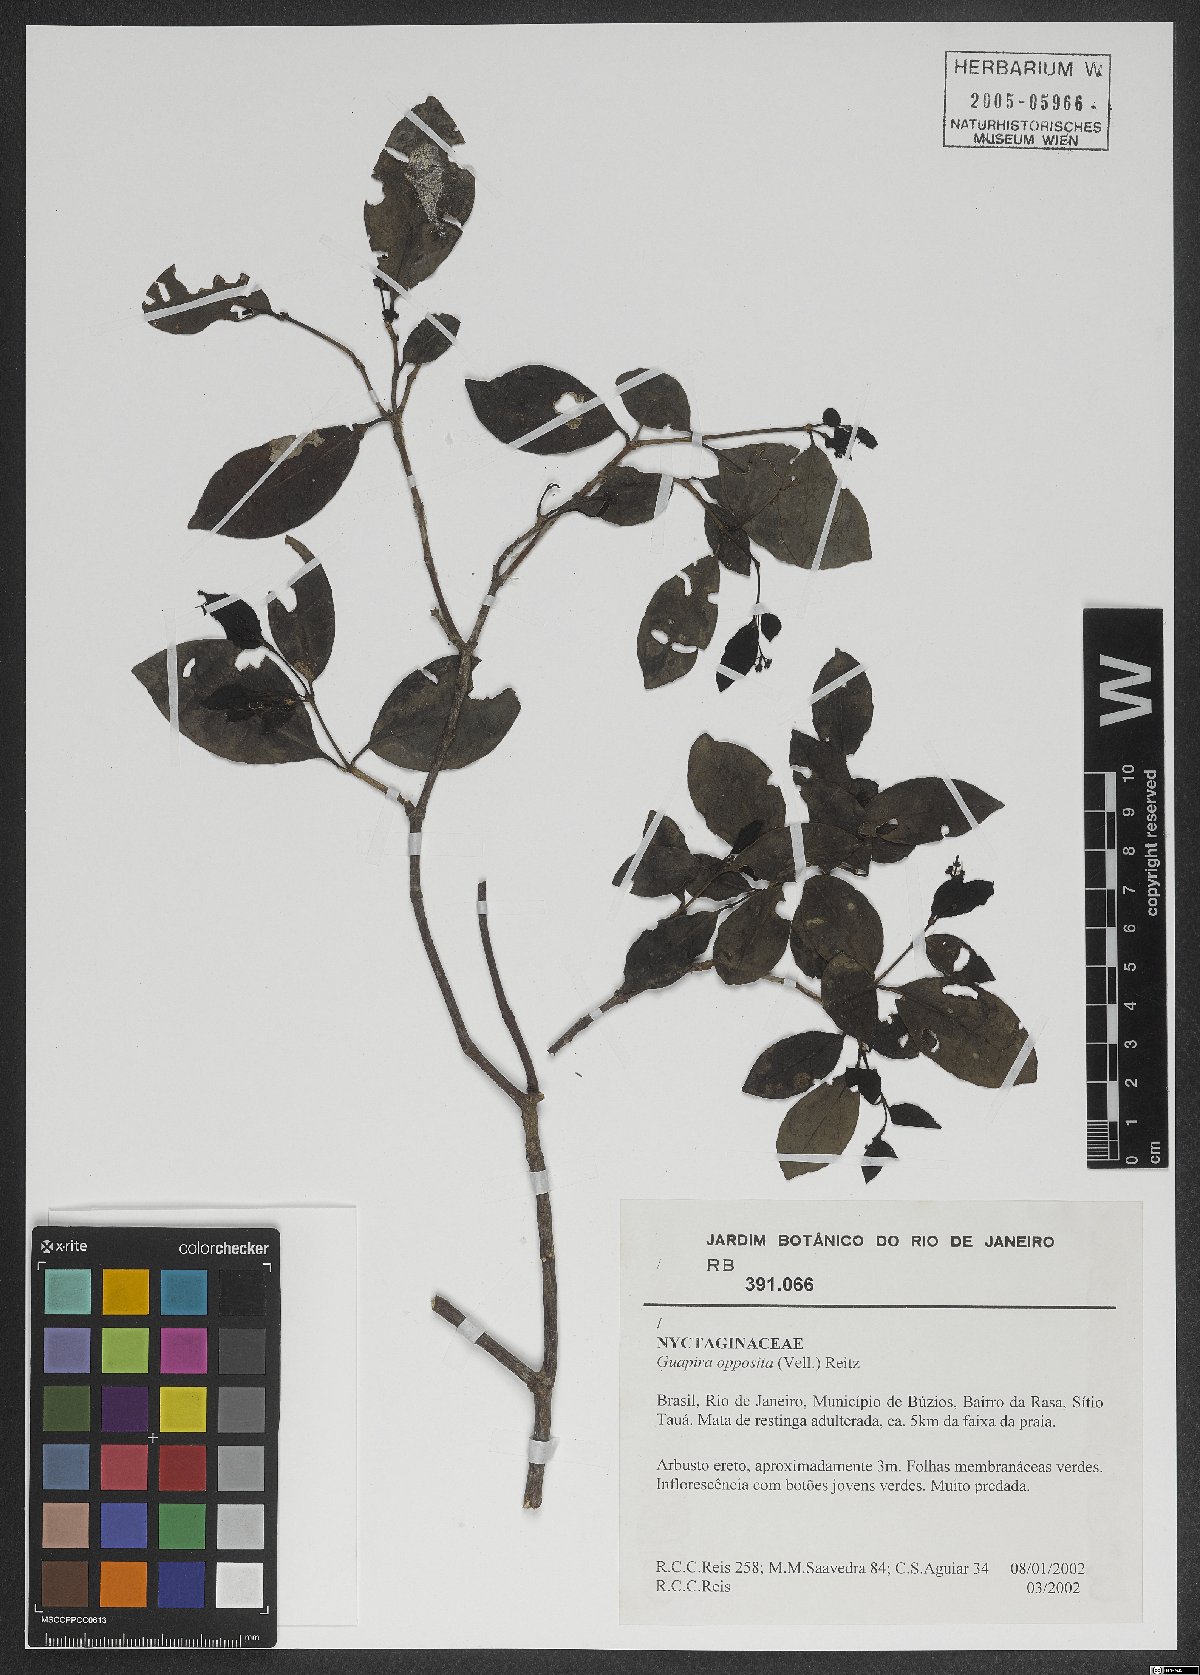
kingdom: Plantae
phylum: Tracheophyta
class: Magnoliopsida
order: Caryophyllales
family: Nyctaginaceae
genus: Guapira
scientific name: Guapira opposita
